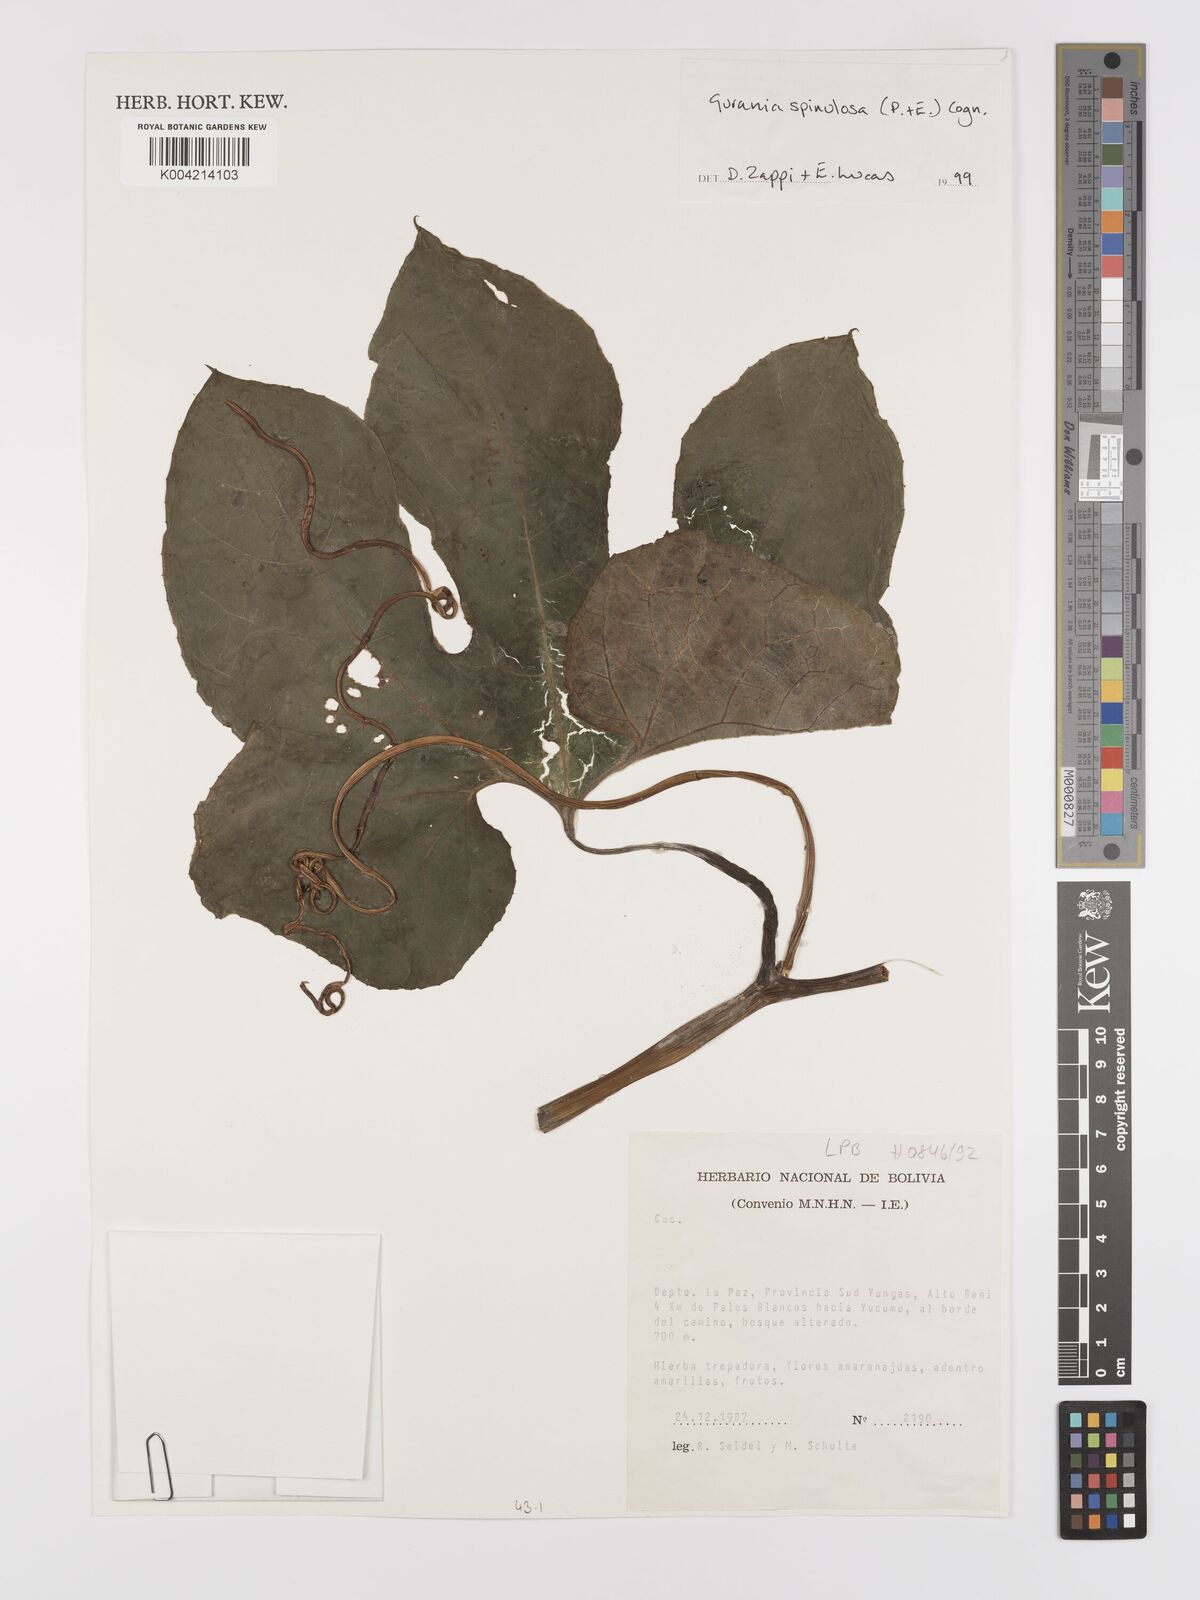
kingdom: Plantae
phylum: Tracheophyta
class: Magnoliopsida
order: Cucurbitales
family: Cucurbitaceae
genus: Gurania
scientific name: Gurania lobata
